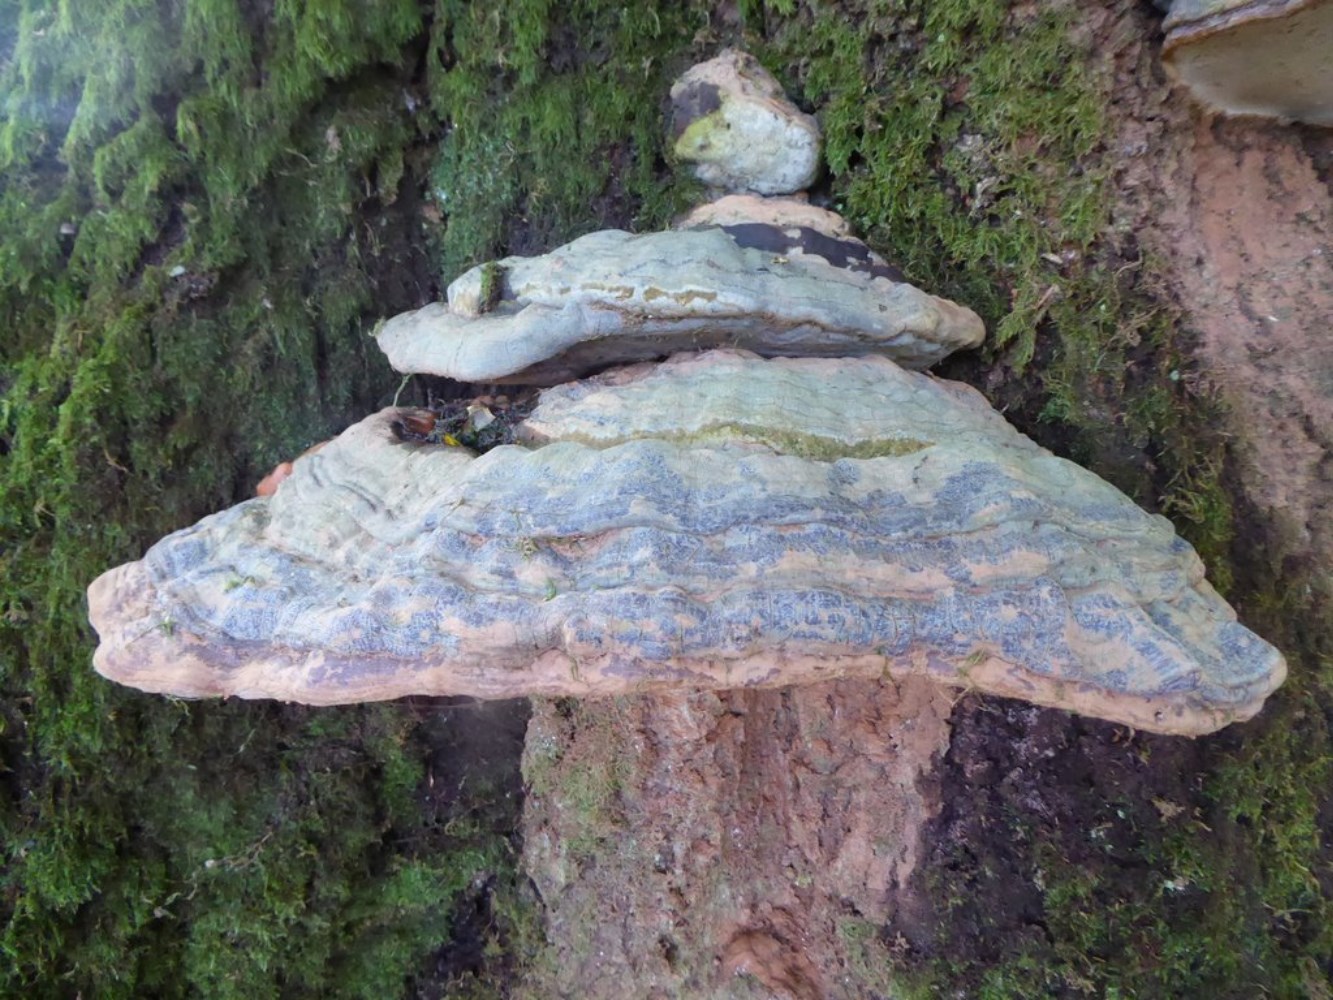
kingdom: Fungi
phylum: Basidiomycota
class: Agaricomycetes
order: Polyporales
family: Polyporaceae
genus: Ganoderma
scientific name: Ganoderma pfeifferi
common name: kobberrød lakporesvamp
